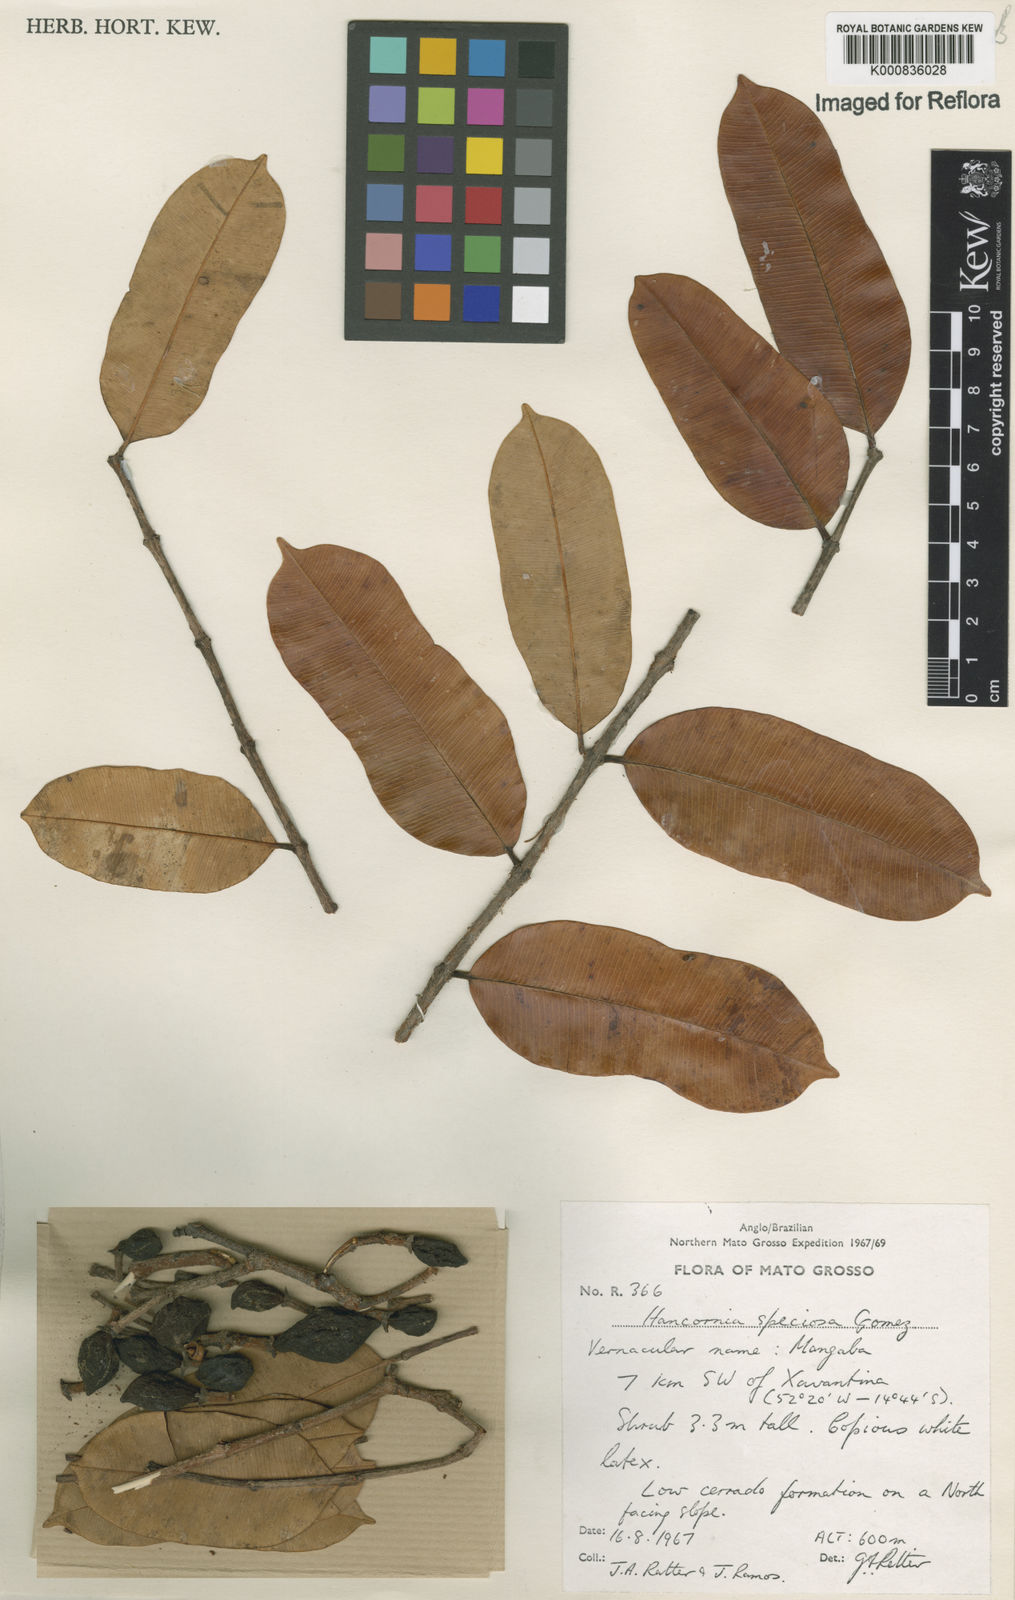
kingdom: Plantae
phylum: Tracheophyta
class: Magnoliopsida
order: Gentianales
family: Apocynaceae
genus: Hancornia
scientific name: Hancornia speciosa
